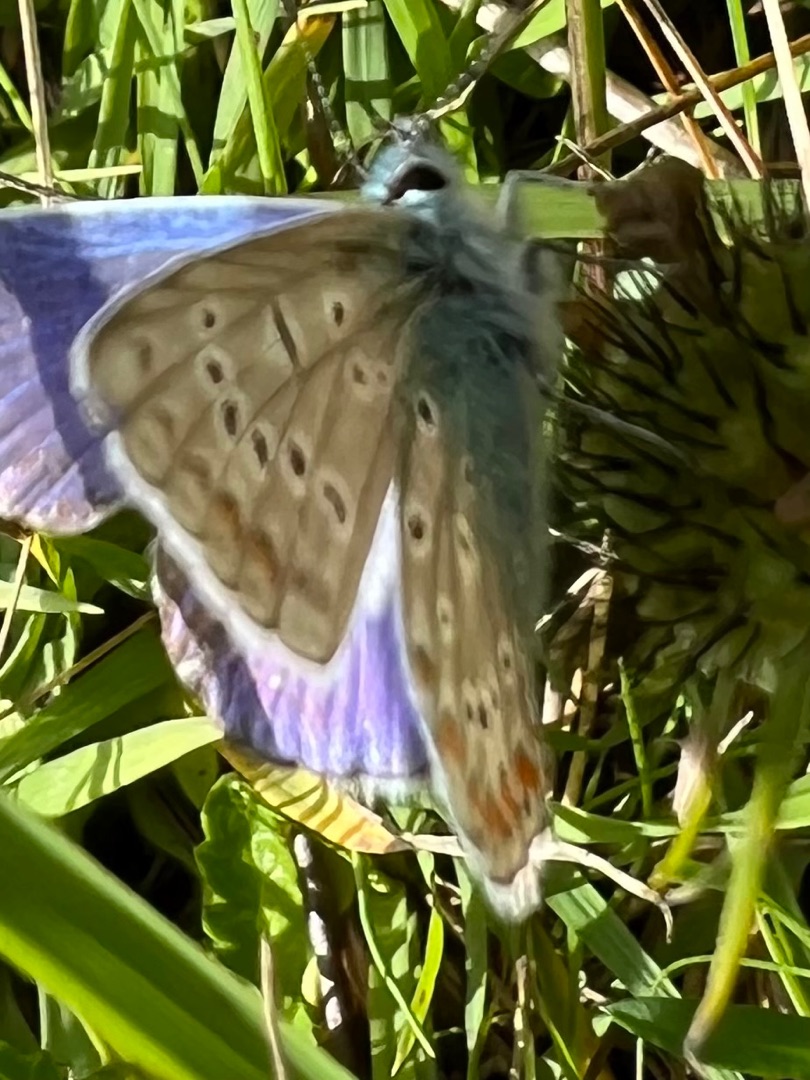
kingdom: Animalia
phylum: Arthropoda
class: Insecta
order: Lepidoptera
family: Lycaenidae
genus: Polyommatus
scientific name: Polyommatus icarus
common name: Almindelig blåfugl
